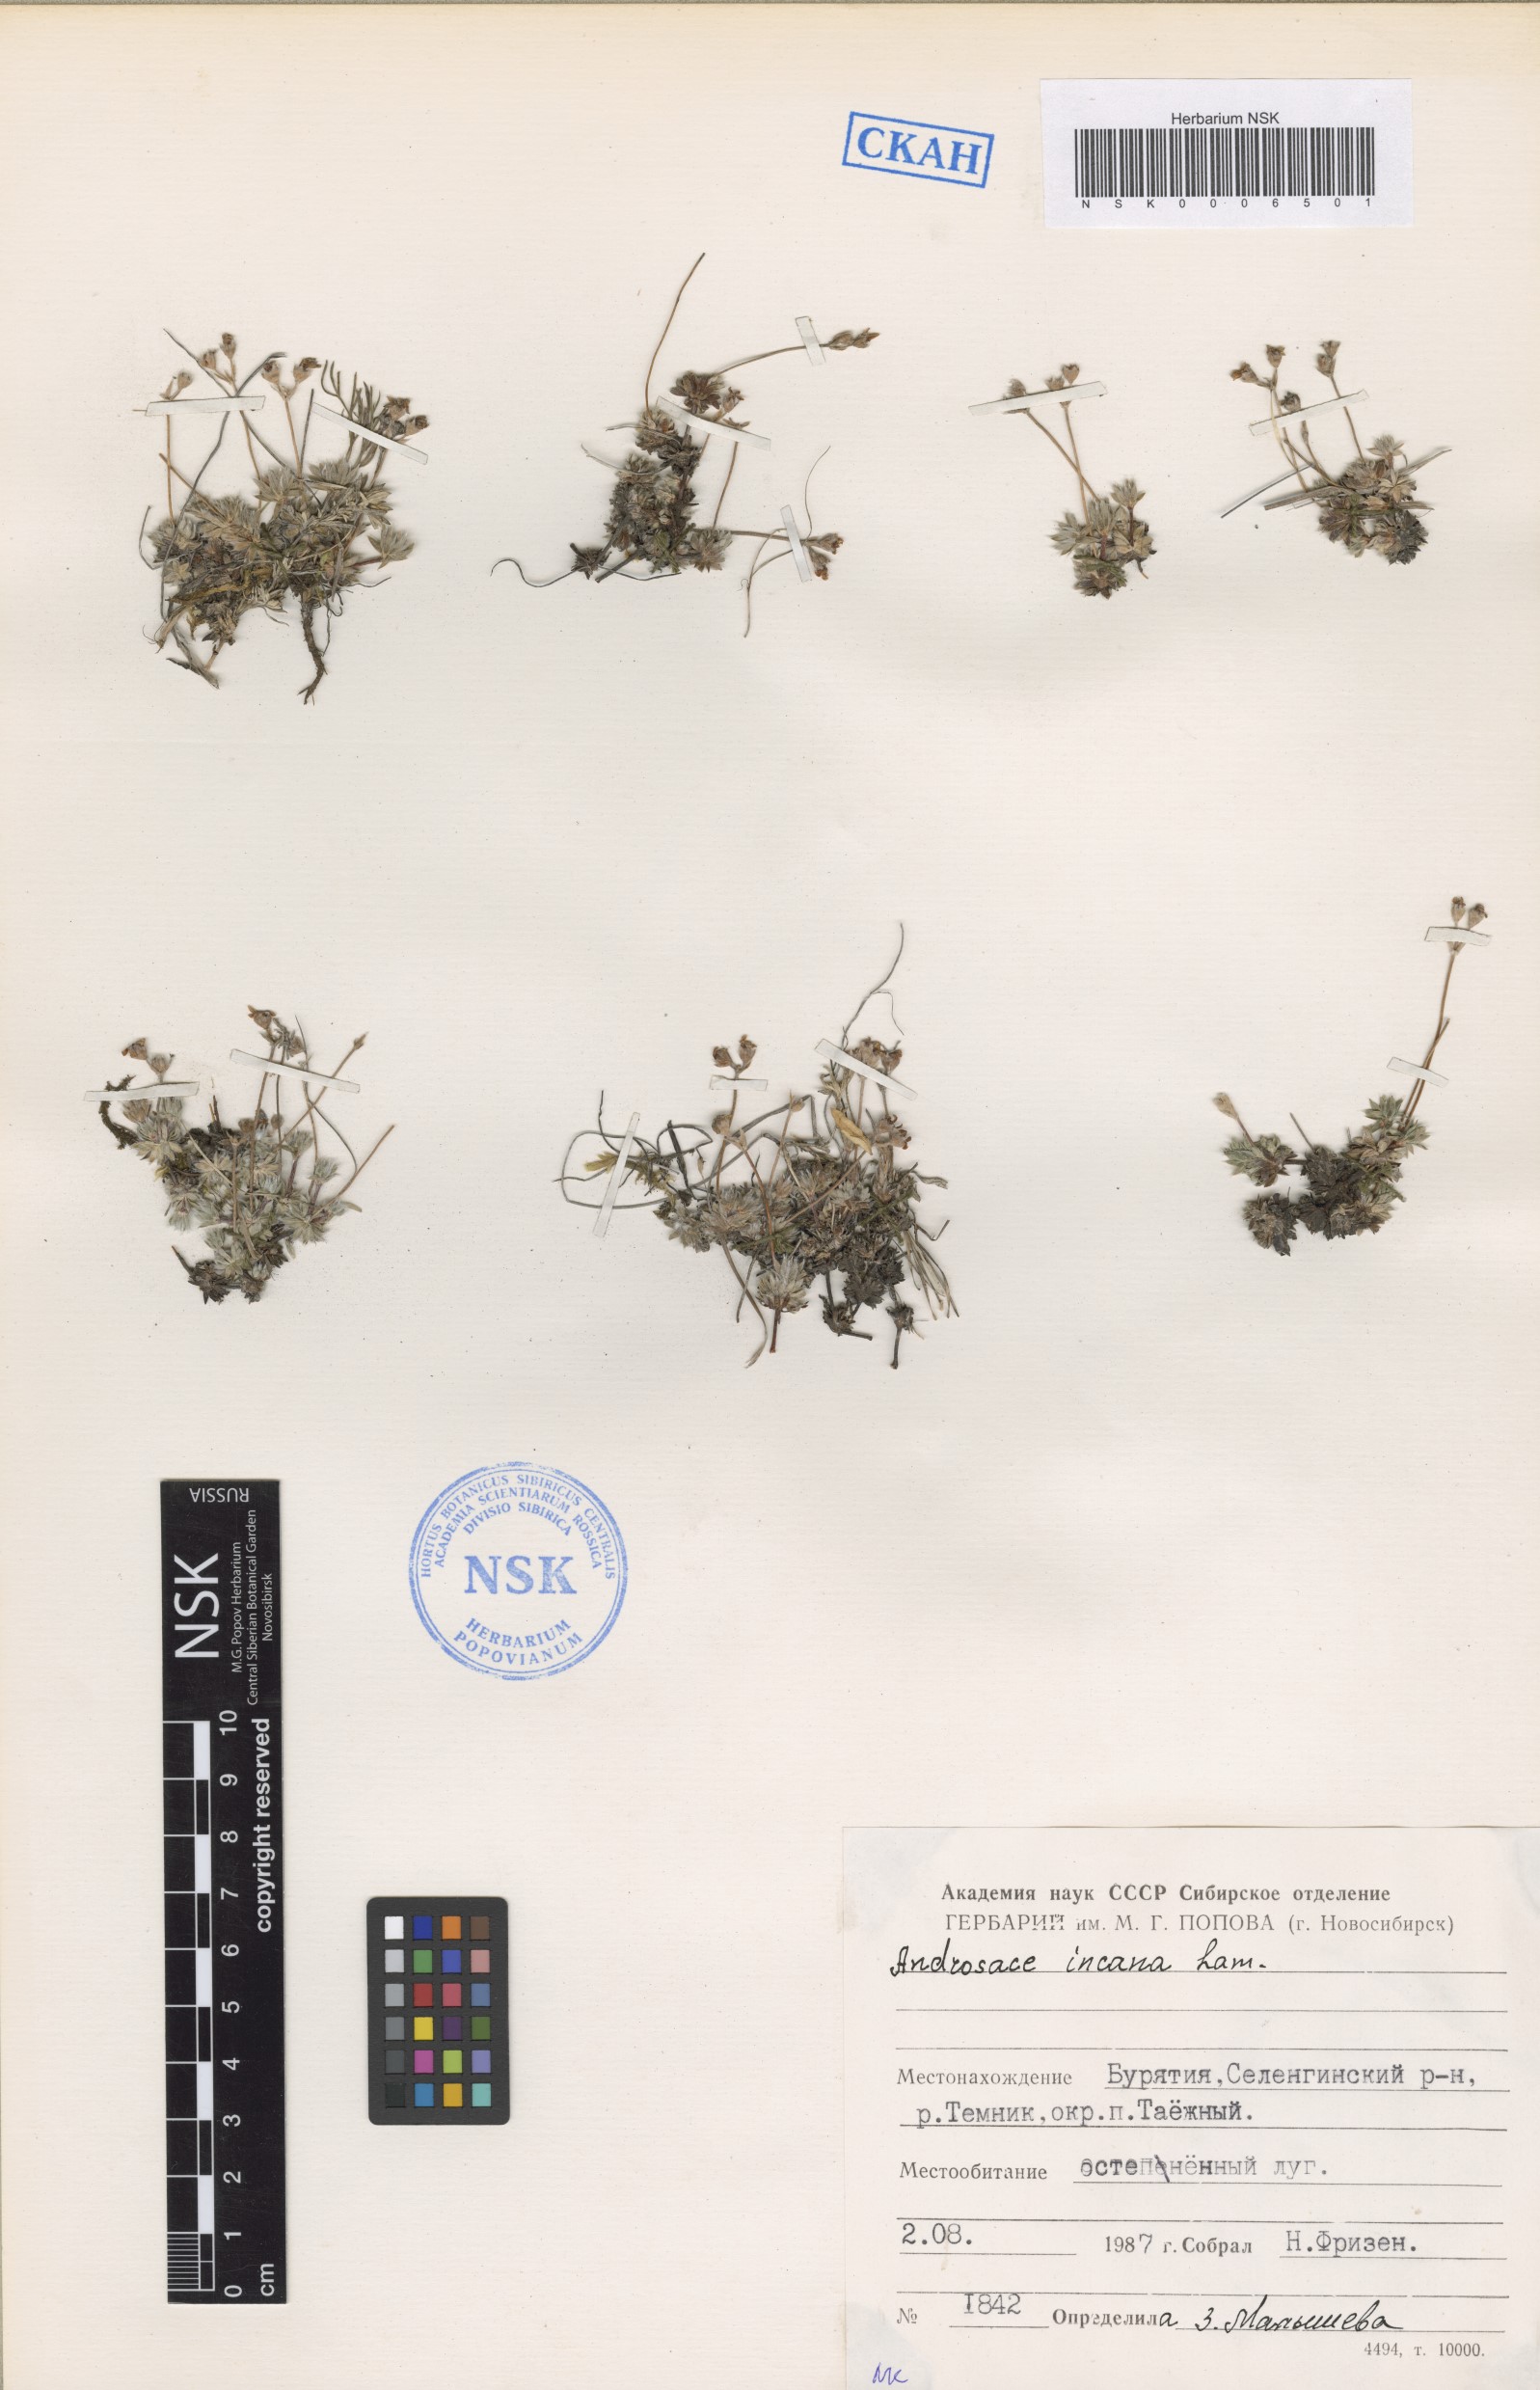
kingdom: Plantae
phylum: Tracheophyta
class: Magnoliopsida
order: Ericales
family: Primulaceae
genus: Androsace
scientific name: Androsace incana
